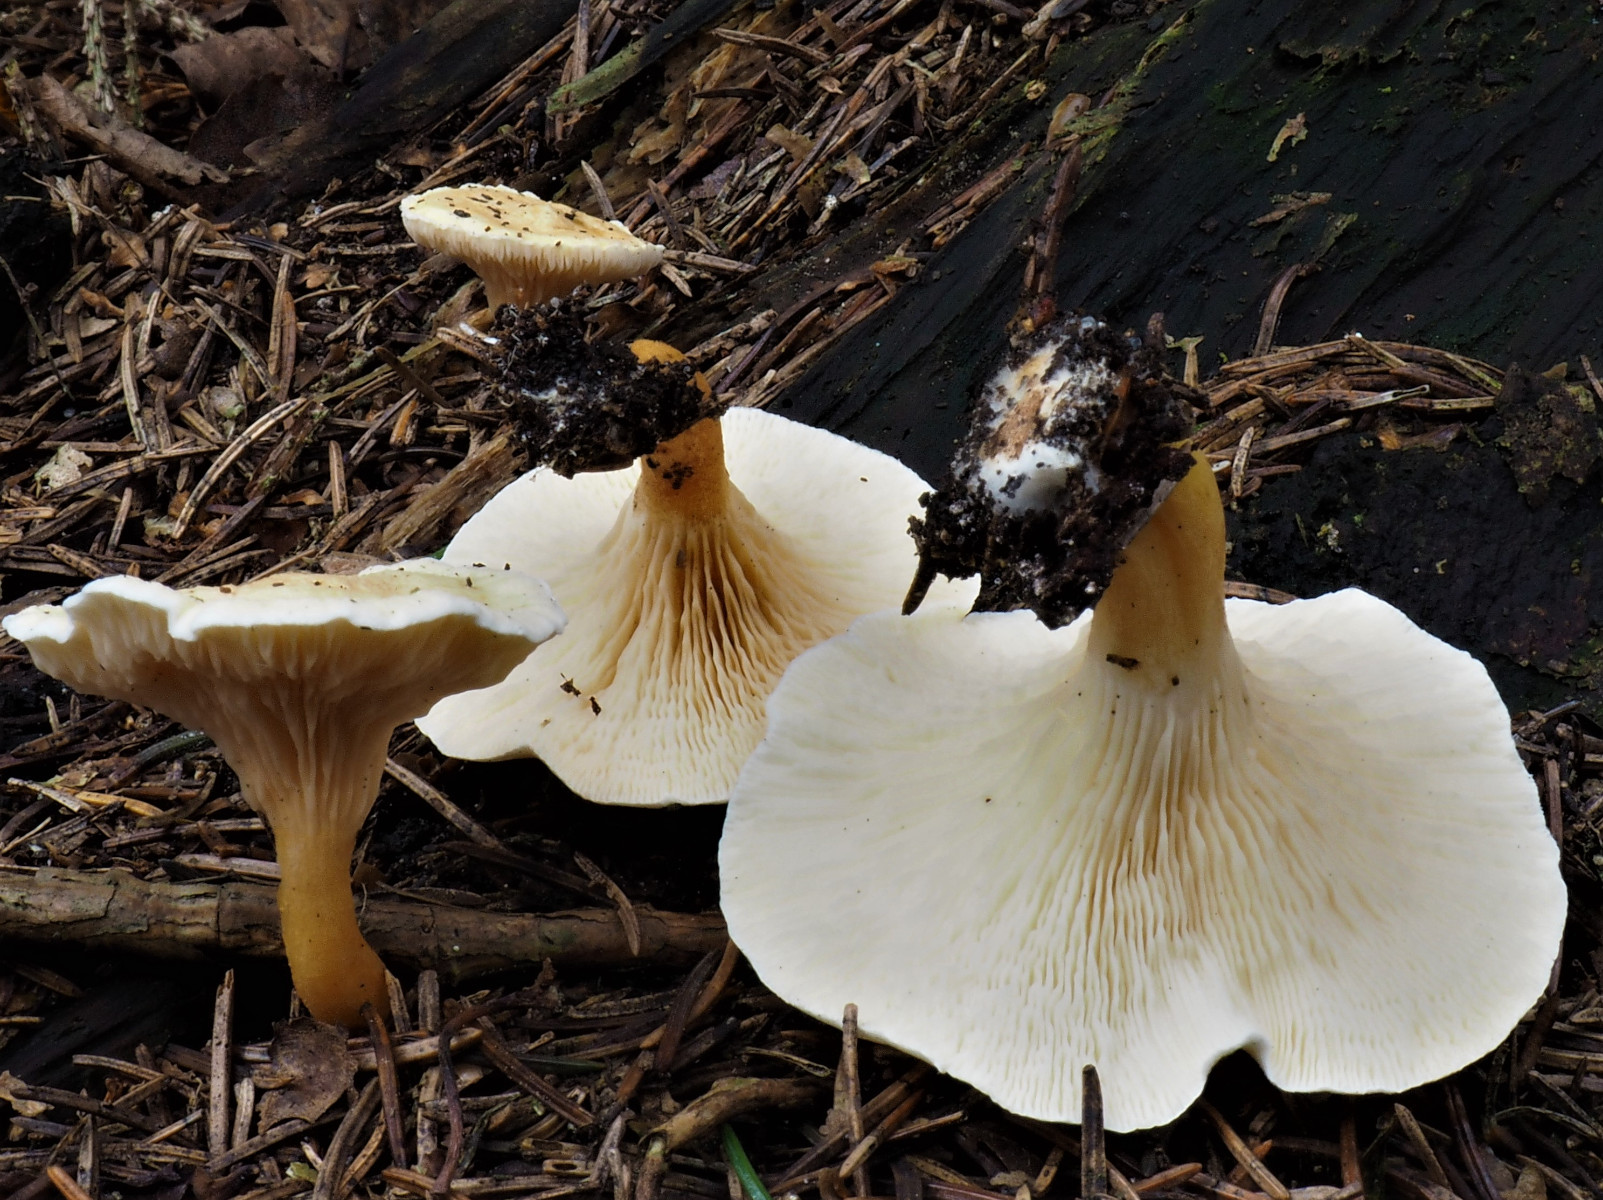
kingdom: Fungi
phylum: Basidiomycota
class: Agaricomycetes
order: Boletales
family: Hygrophoropsidaceae
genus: Hygrophoropsis
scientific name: Hygrophoropsis pallida
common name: bleg orangekantarel
